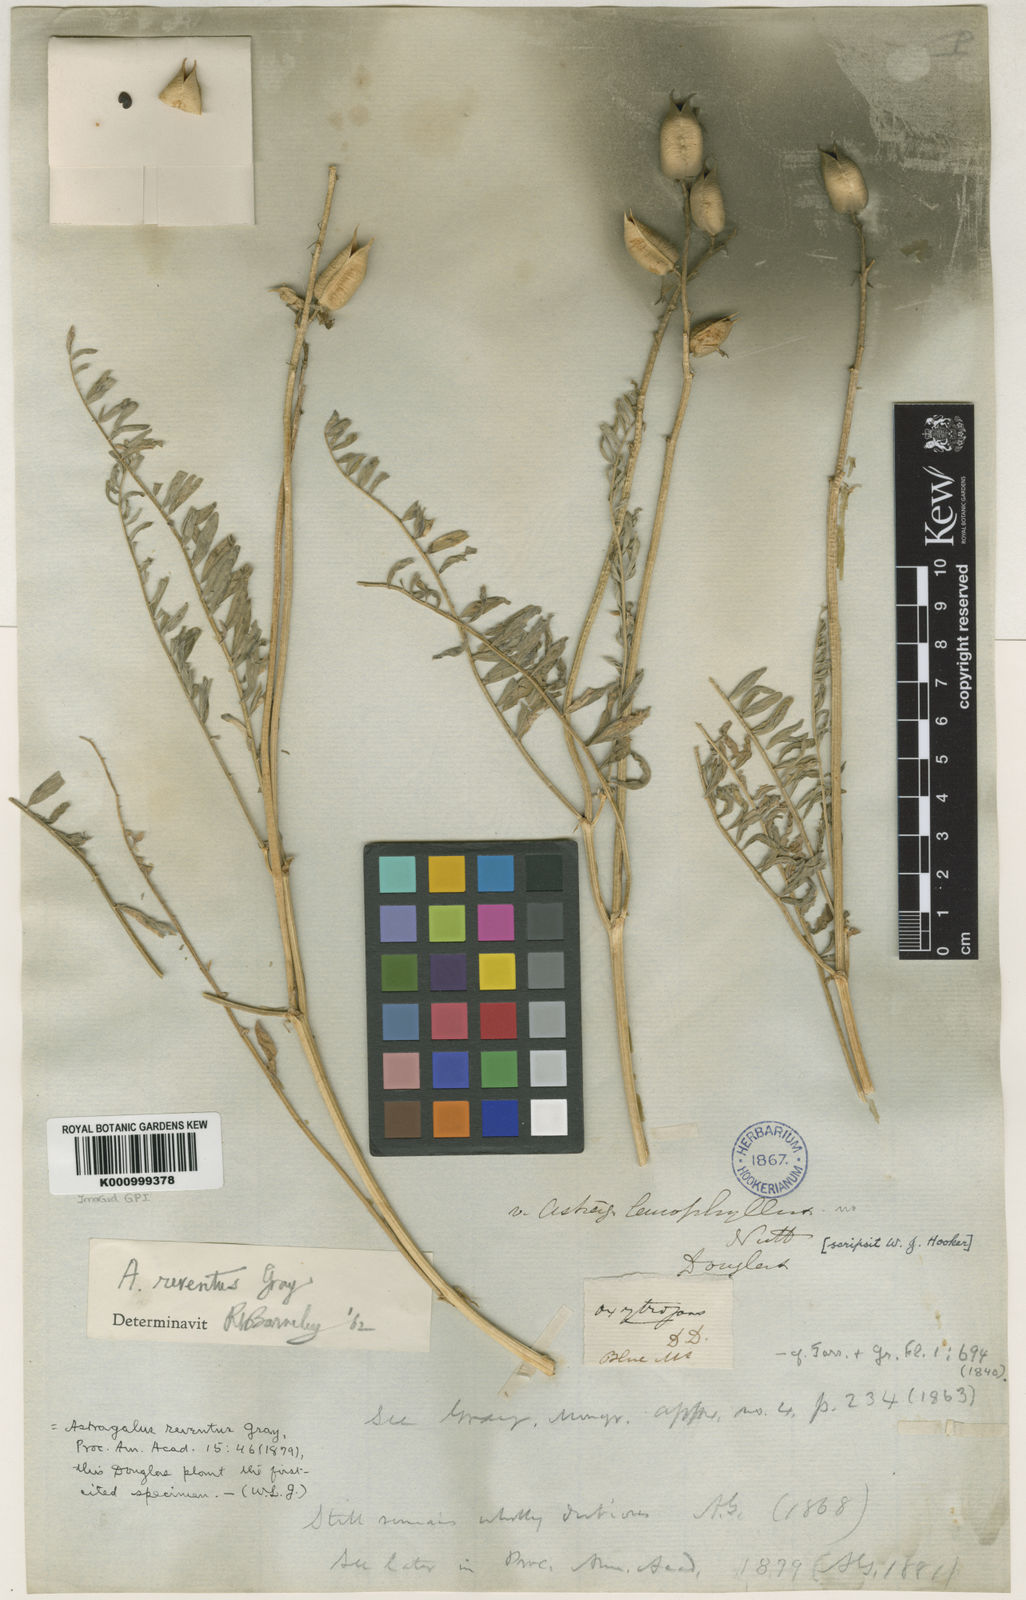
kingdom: Plantae
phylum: Tracheophyta
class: Magnoliopsida
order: Fabales
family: Fabaceae
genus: Astragalus
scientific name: Astragalus asymmetricus
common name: Horse locoweed
